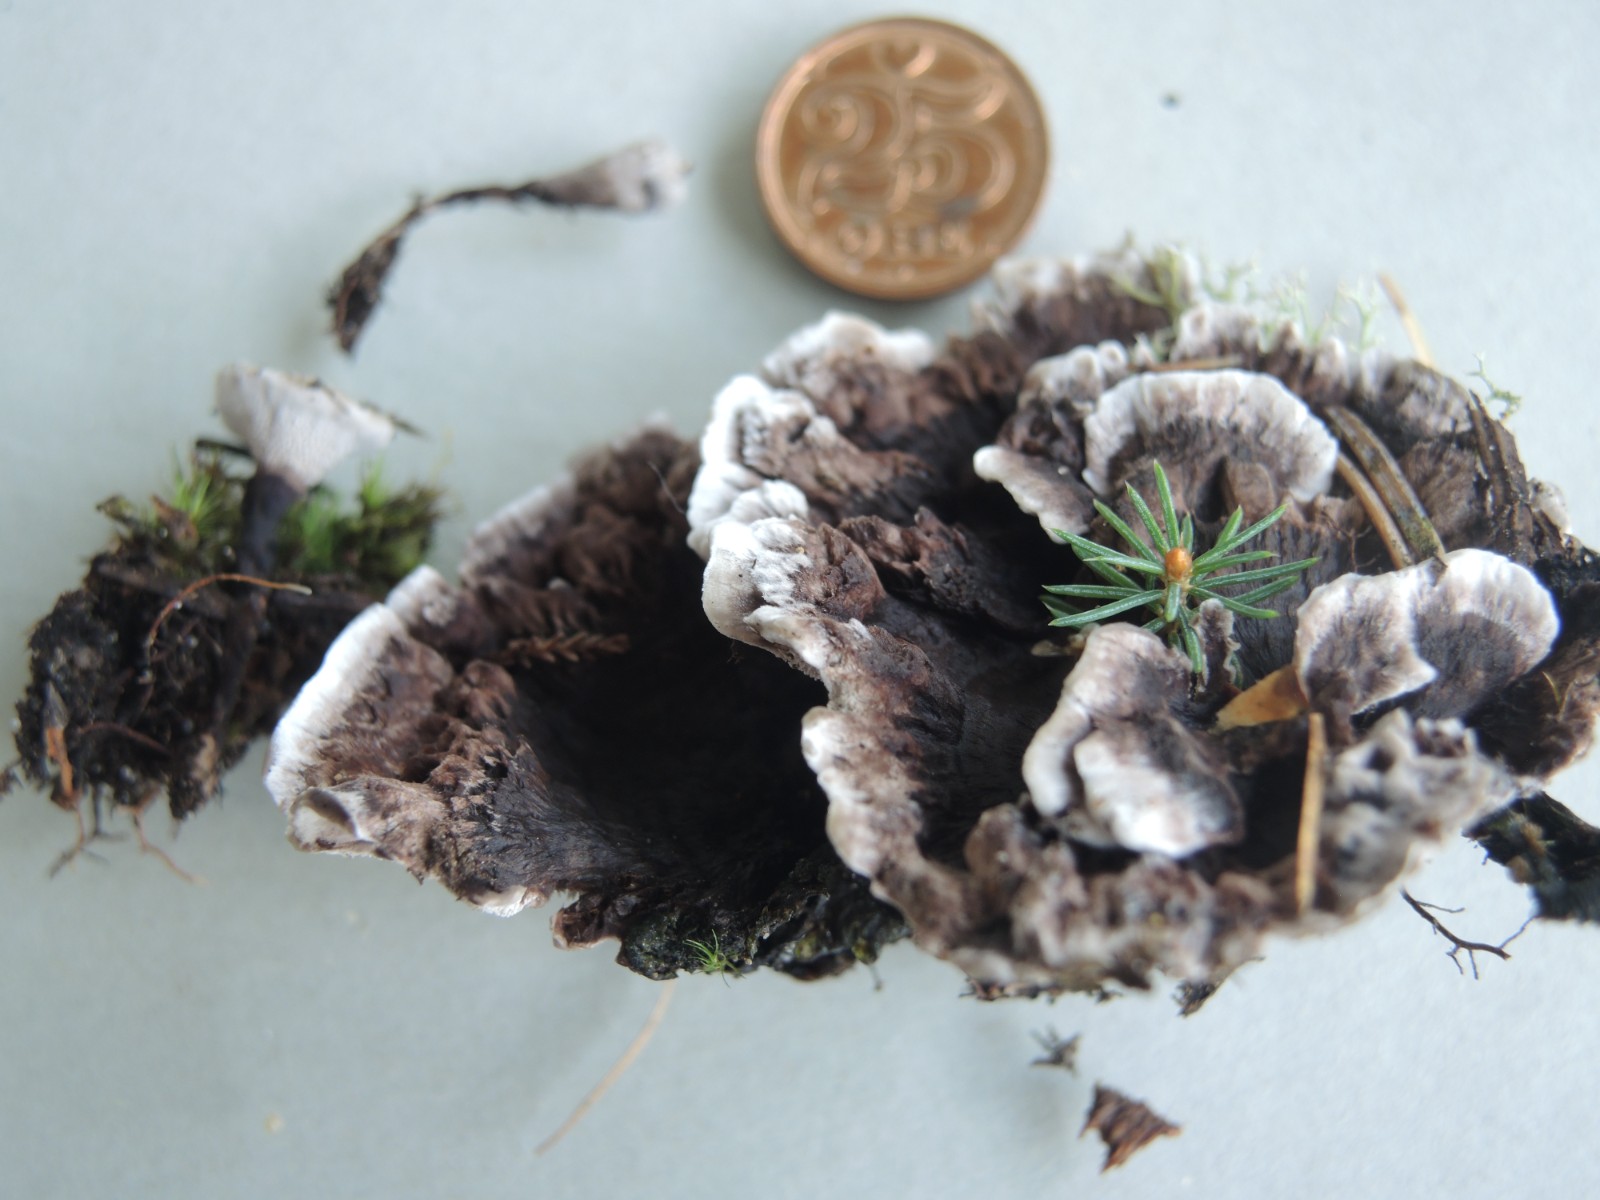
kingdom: Fungi
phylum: Basidiomycota
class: Agaricomycetes
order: Thelephorales
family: Thelephoraceae
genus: Phellodon
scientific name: Phellodon tomentosus
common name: vellugtende duftpigsvamp
